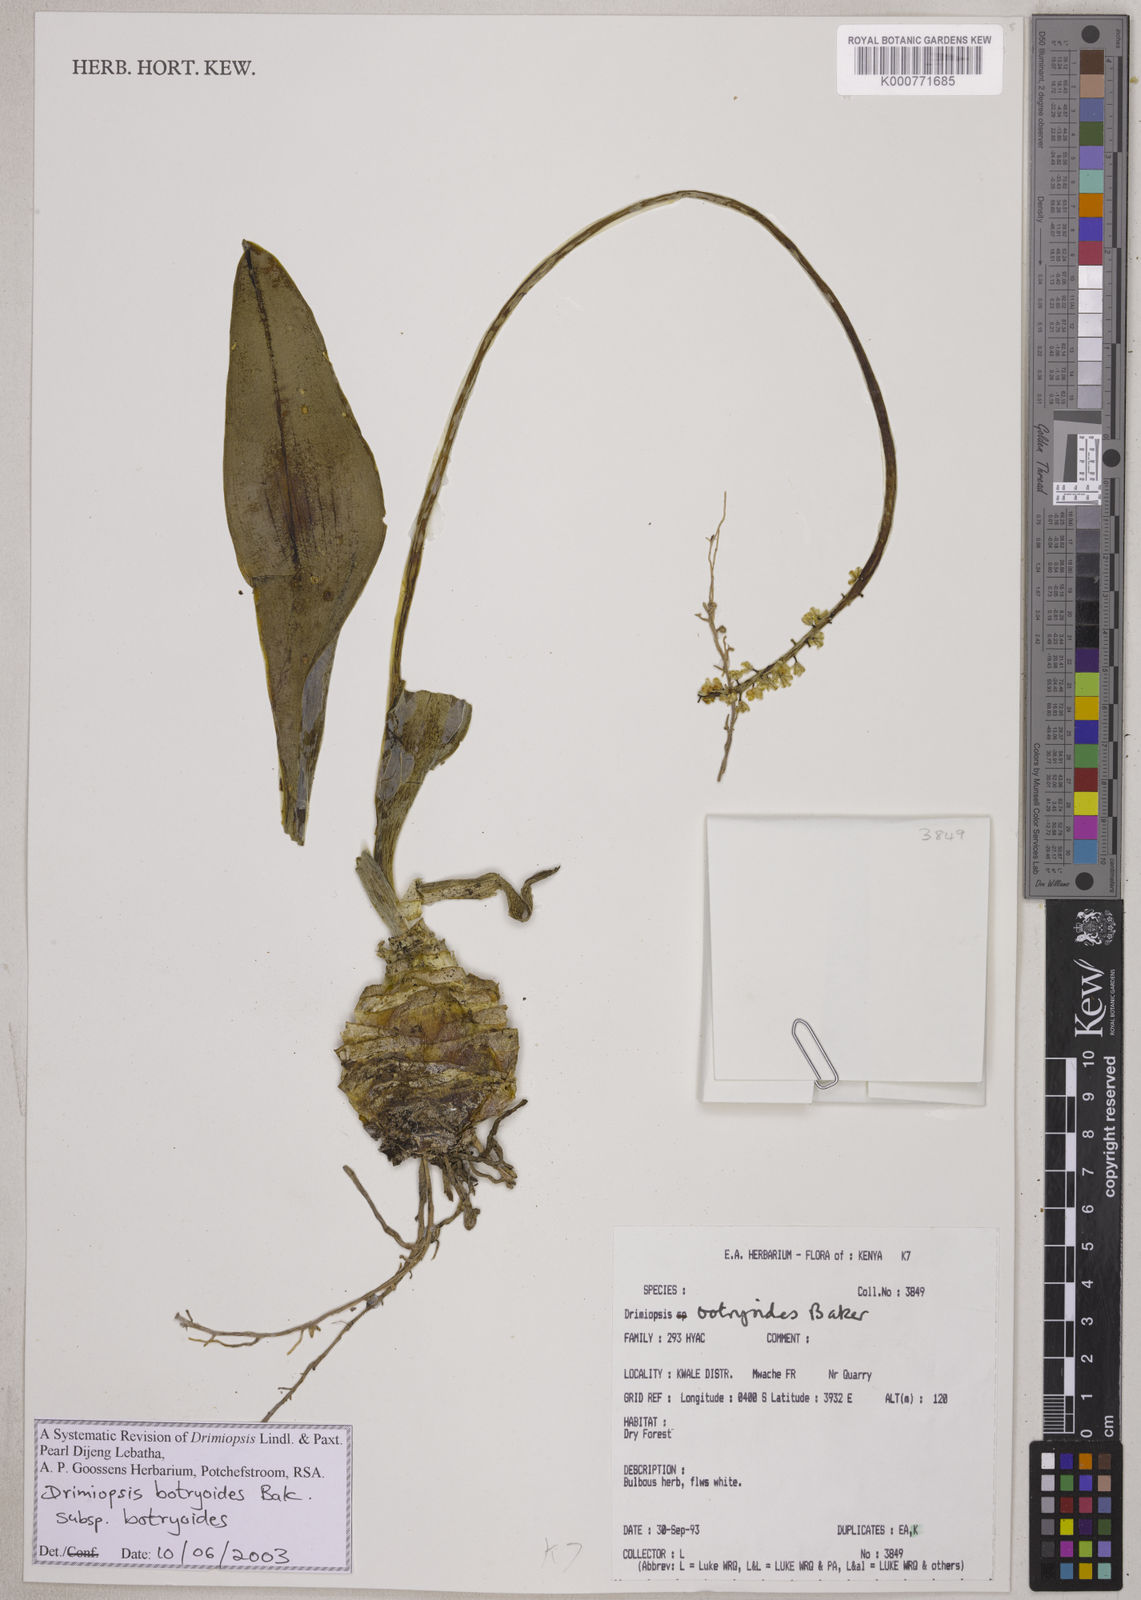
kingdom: Plantae
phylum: Tracheophyta
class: Liliopsida
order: Asparagales
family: Asparagaceae
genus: Drimiopsis
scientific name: Drimiopsis botryoides
